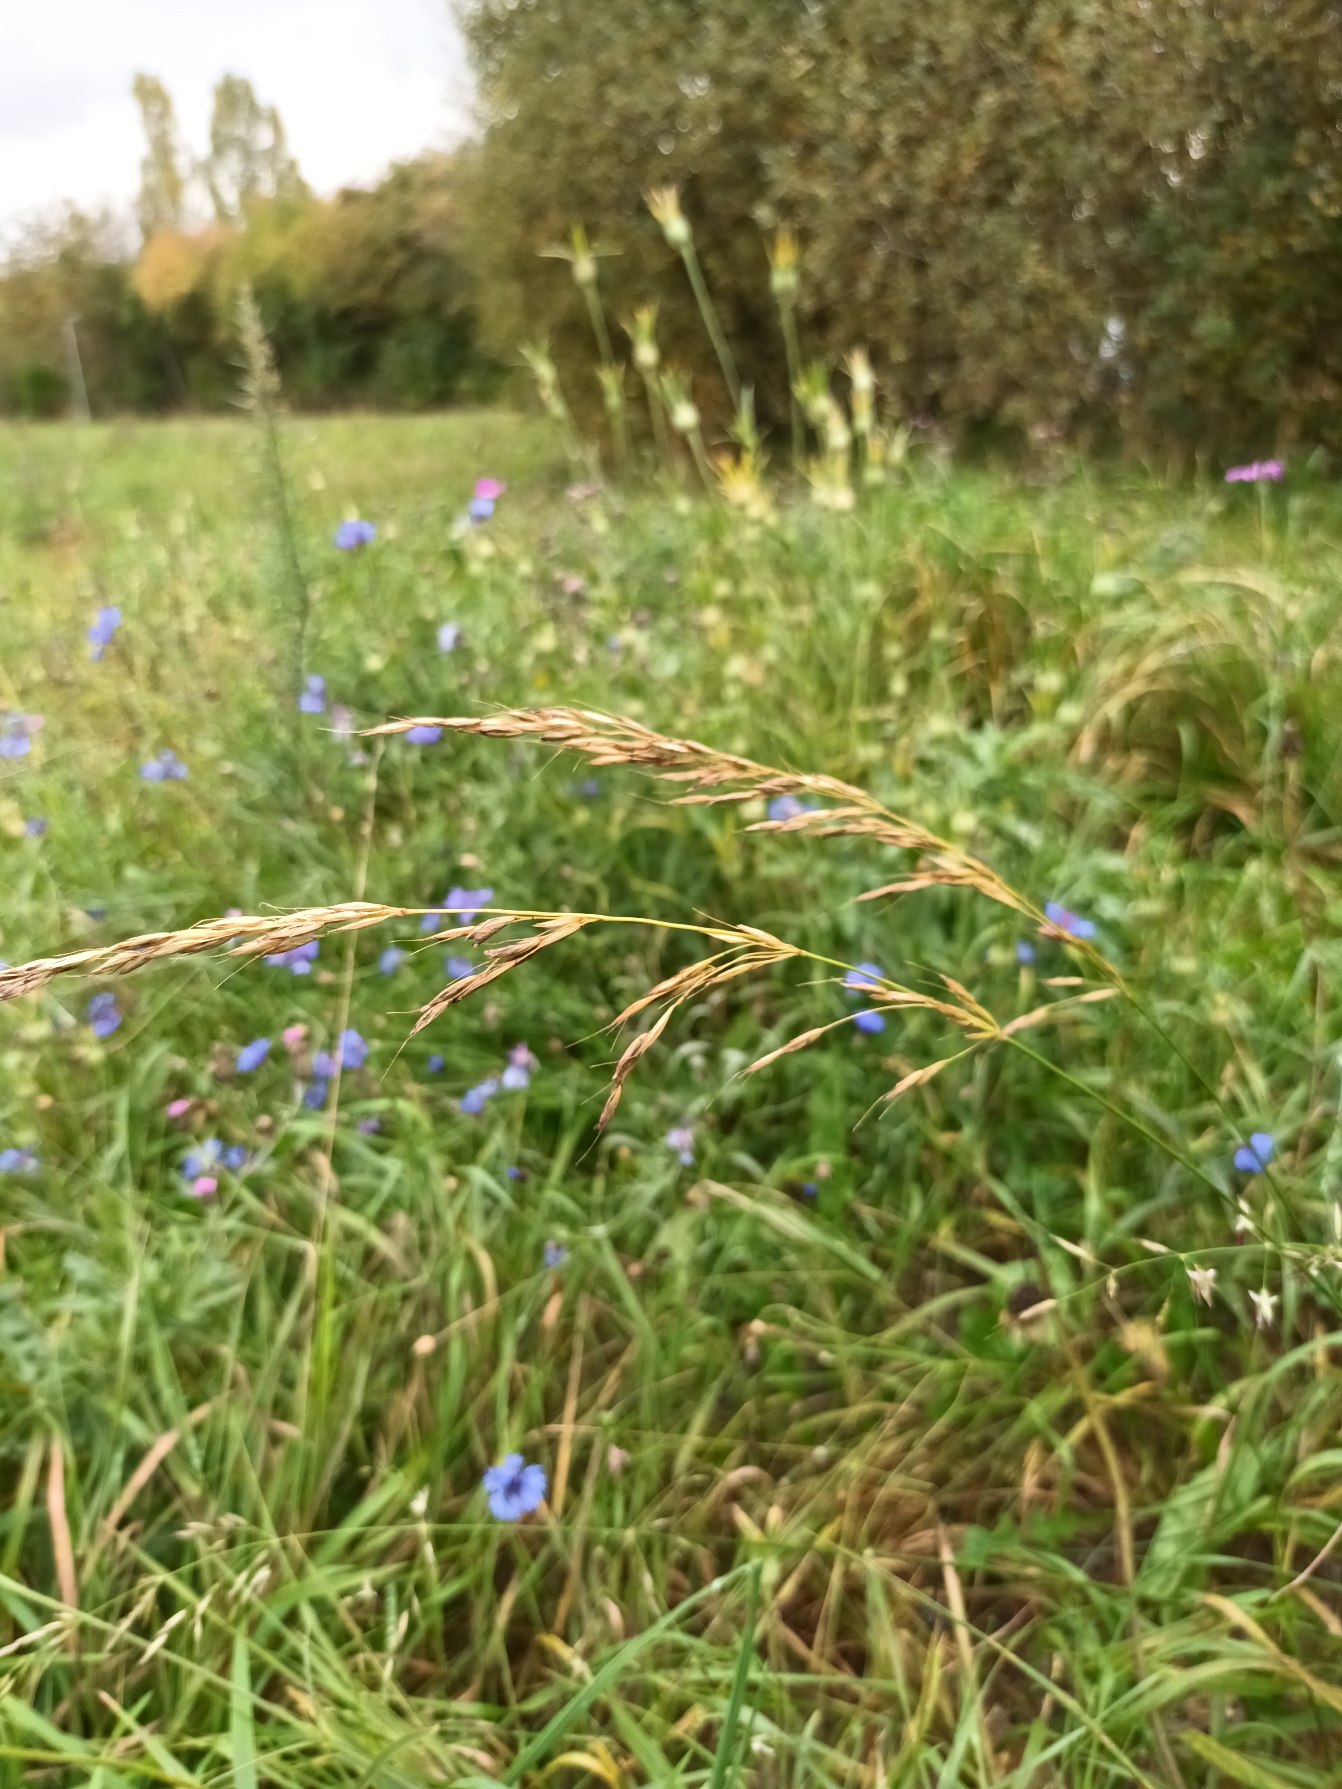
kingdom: Plantae
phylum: Tracheophyta
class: Liliopsida
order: Poales
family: Poaceae
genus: Arrhenatherum
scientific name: Arrhenatherum elatius
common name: Draphavre
